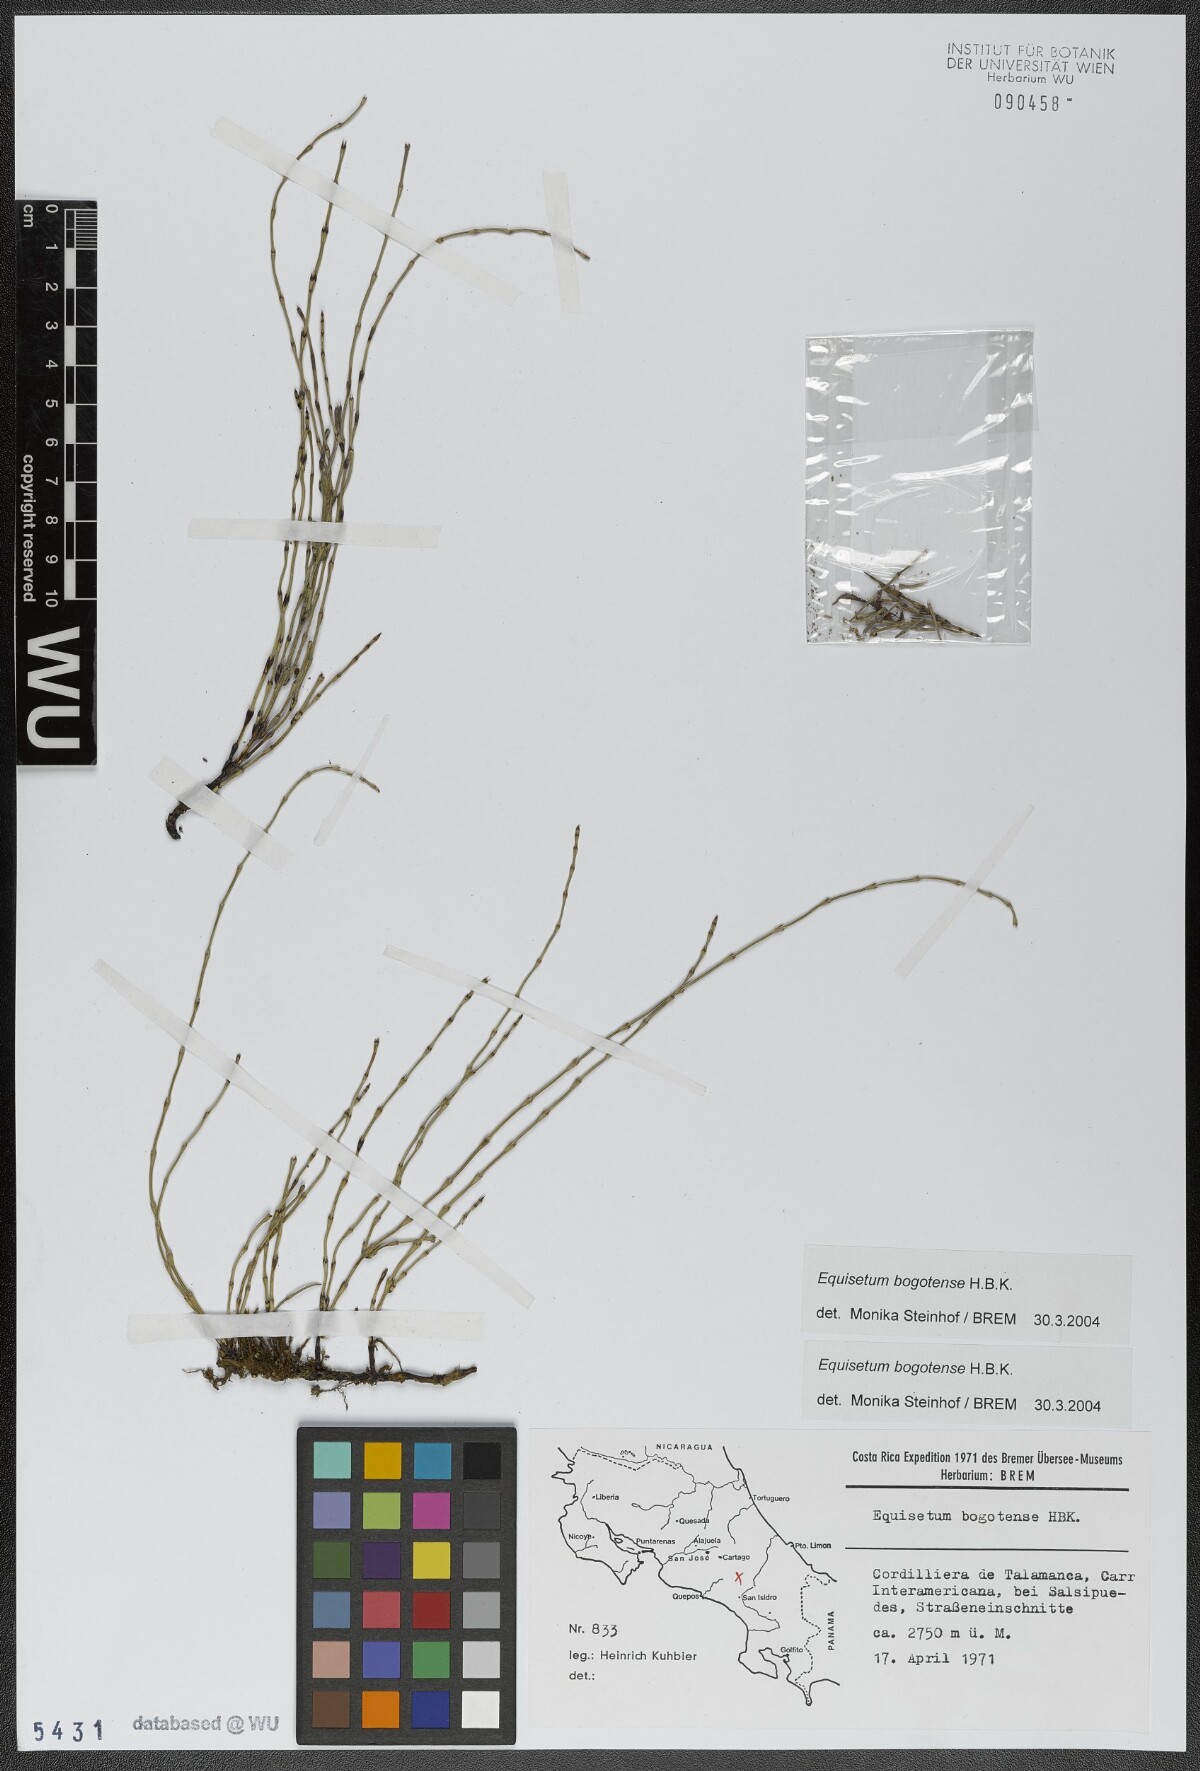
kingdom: Plantae
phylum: Tracheophyta
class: Polypodiopsida
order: Equisetales
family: Equisetaceae
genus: Equisetum
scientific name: Equisetum bogotense
